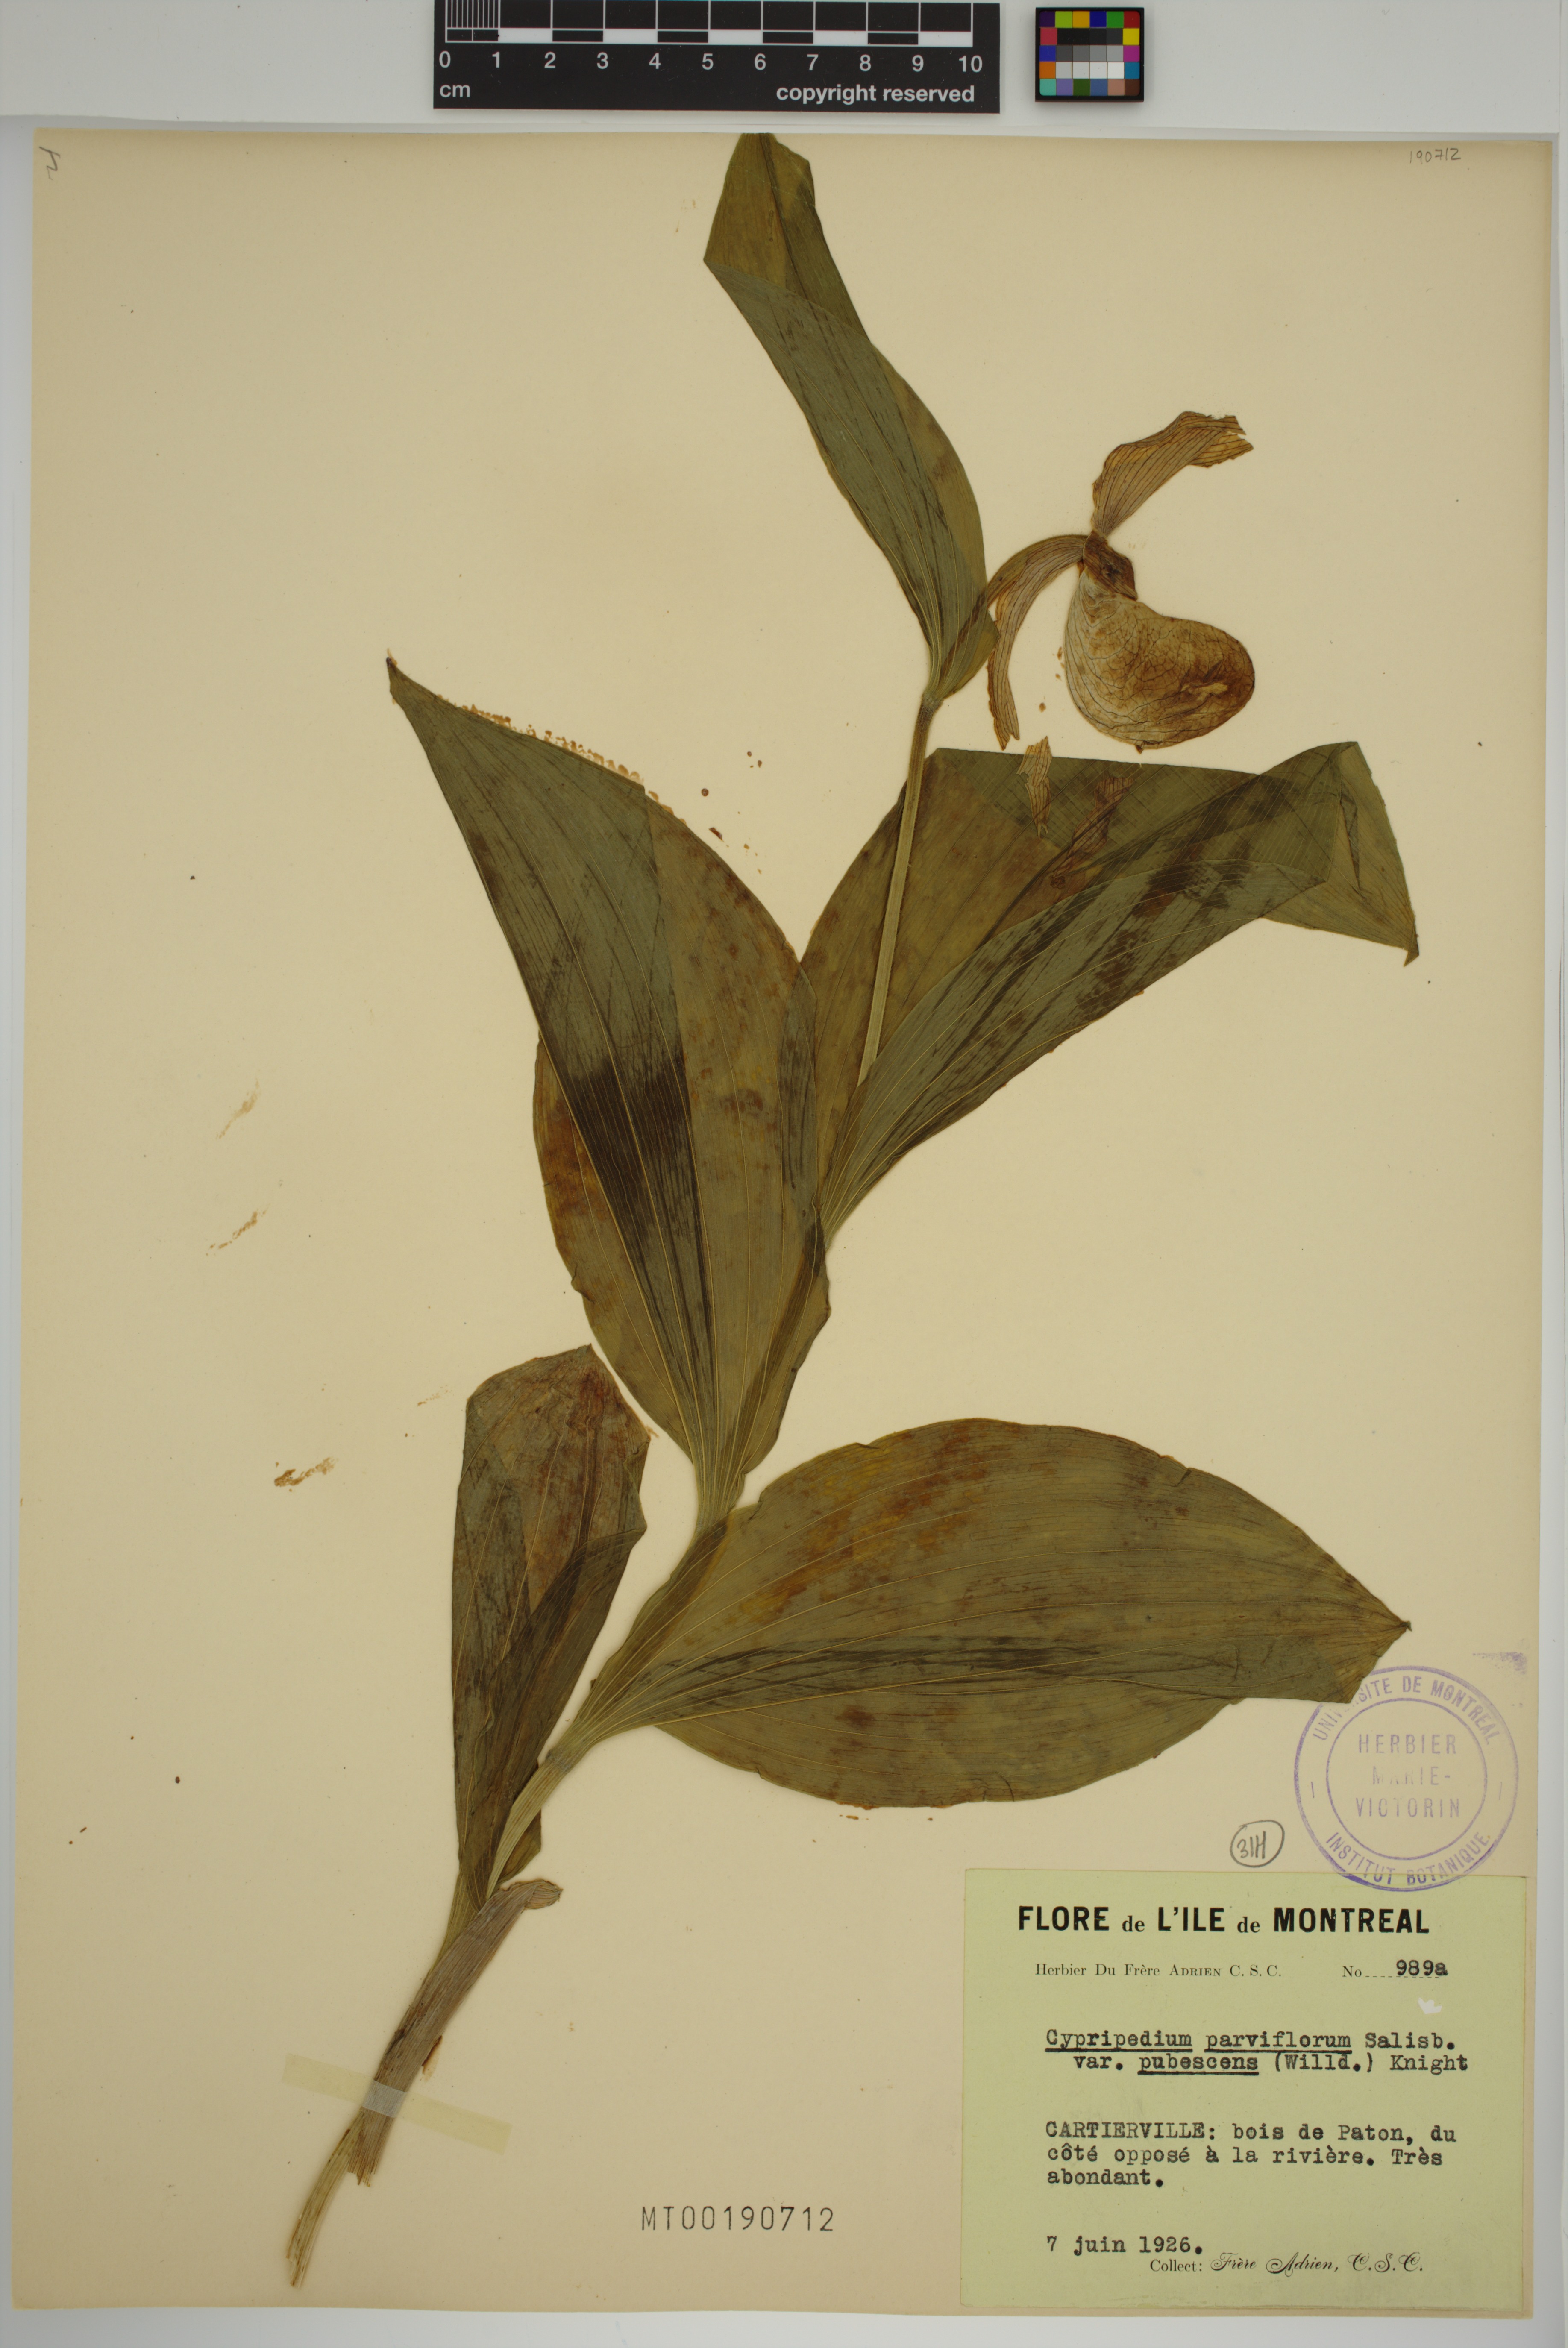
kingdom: Plantae
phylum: Tracheophyta
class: Liliopsida
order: Asparagales
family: Orchidaceae
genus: Cypripedium
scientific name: Cypripedium parviflorum
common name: American yellow lady's-slipper
